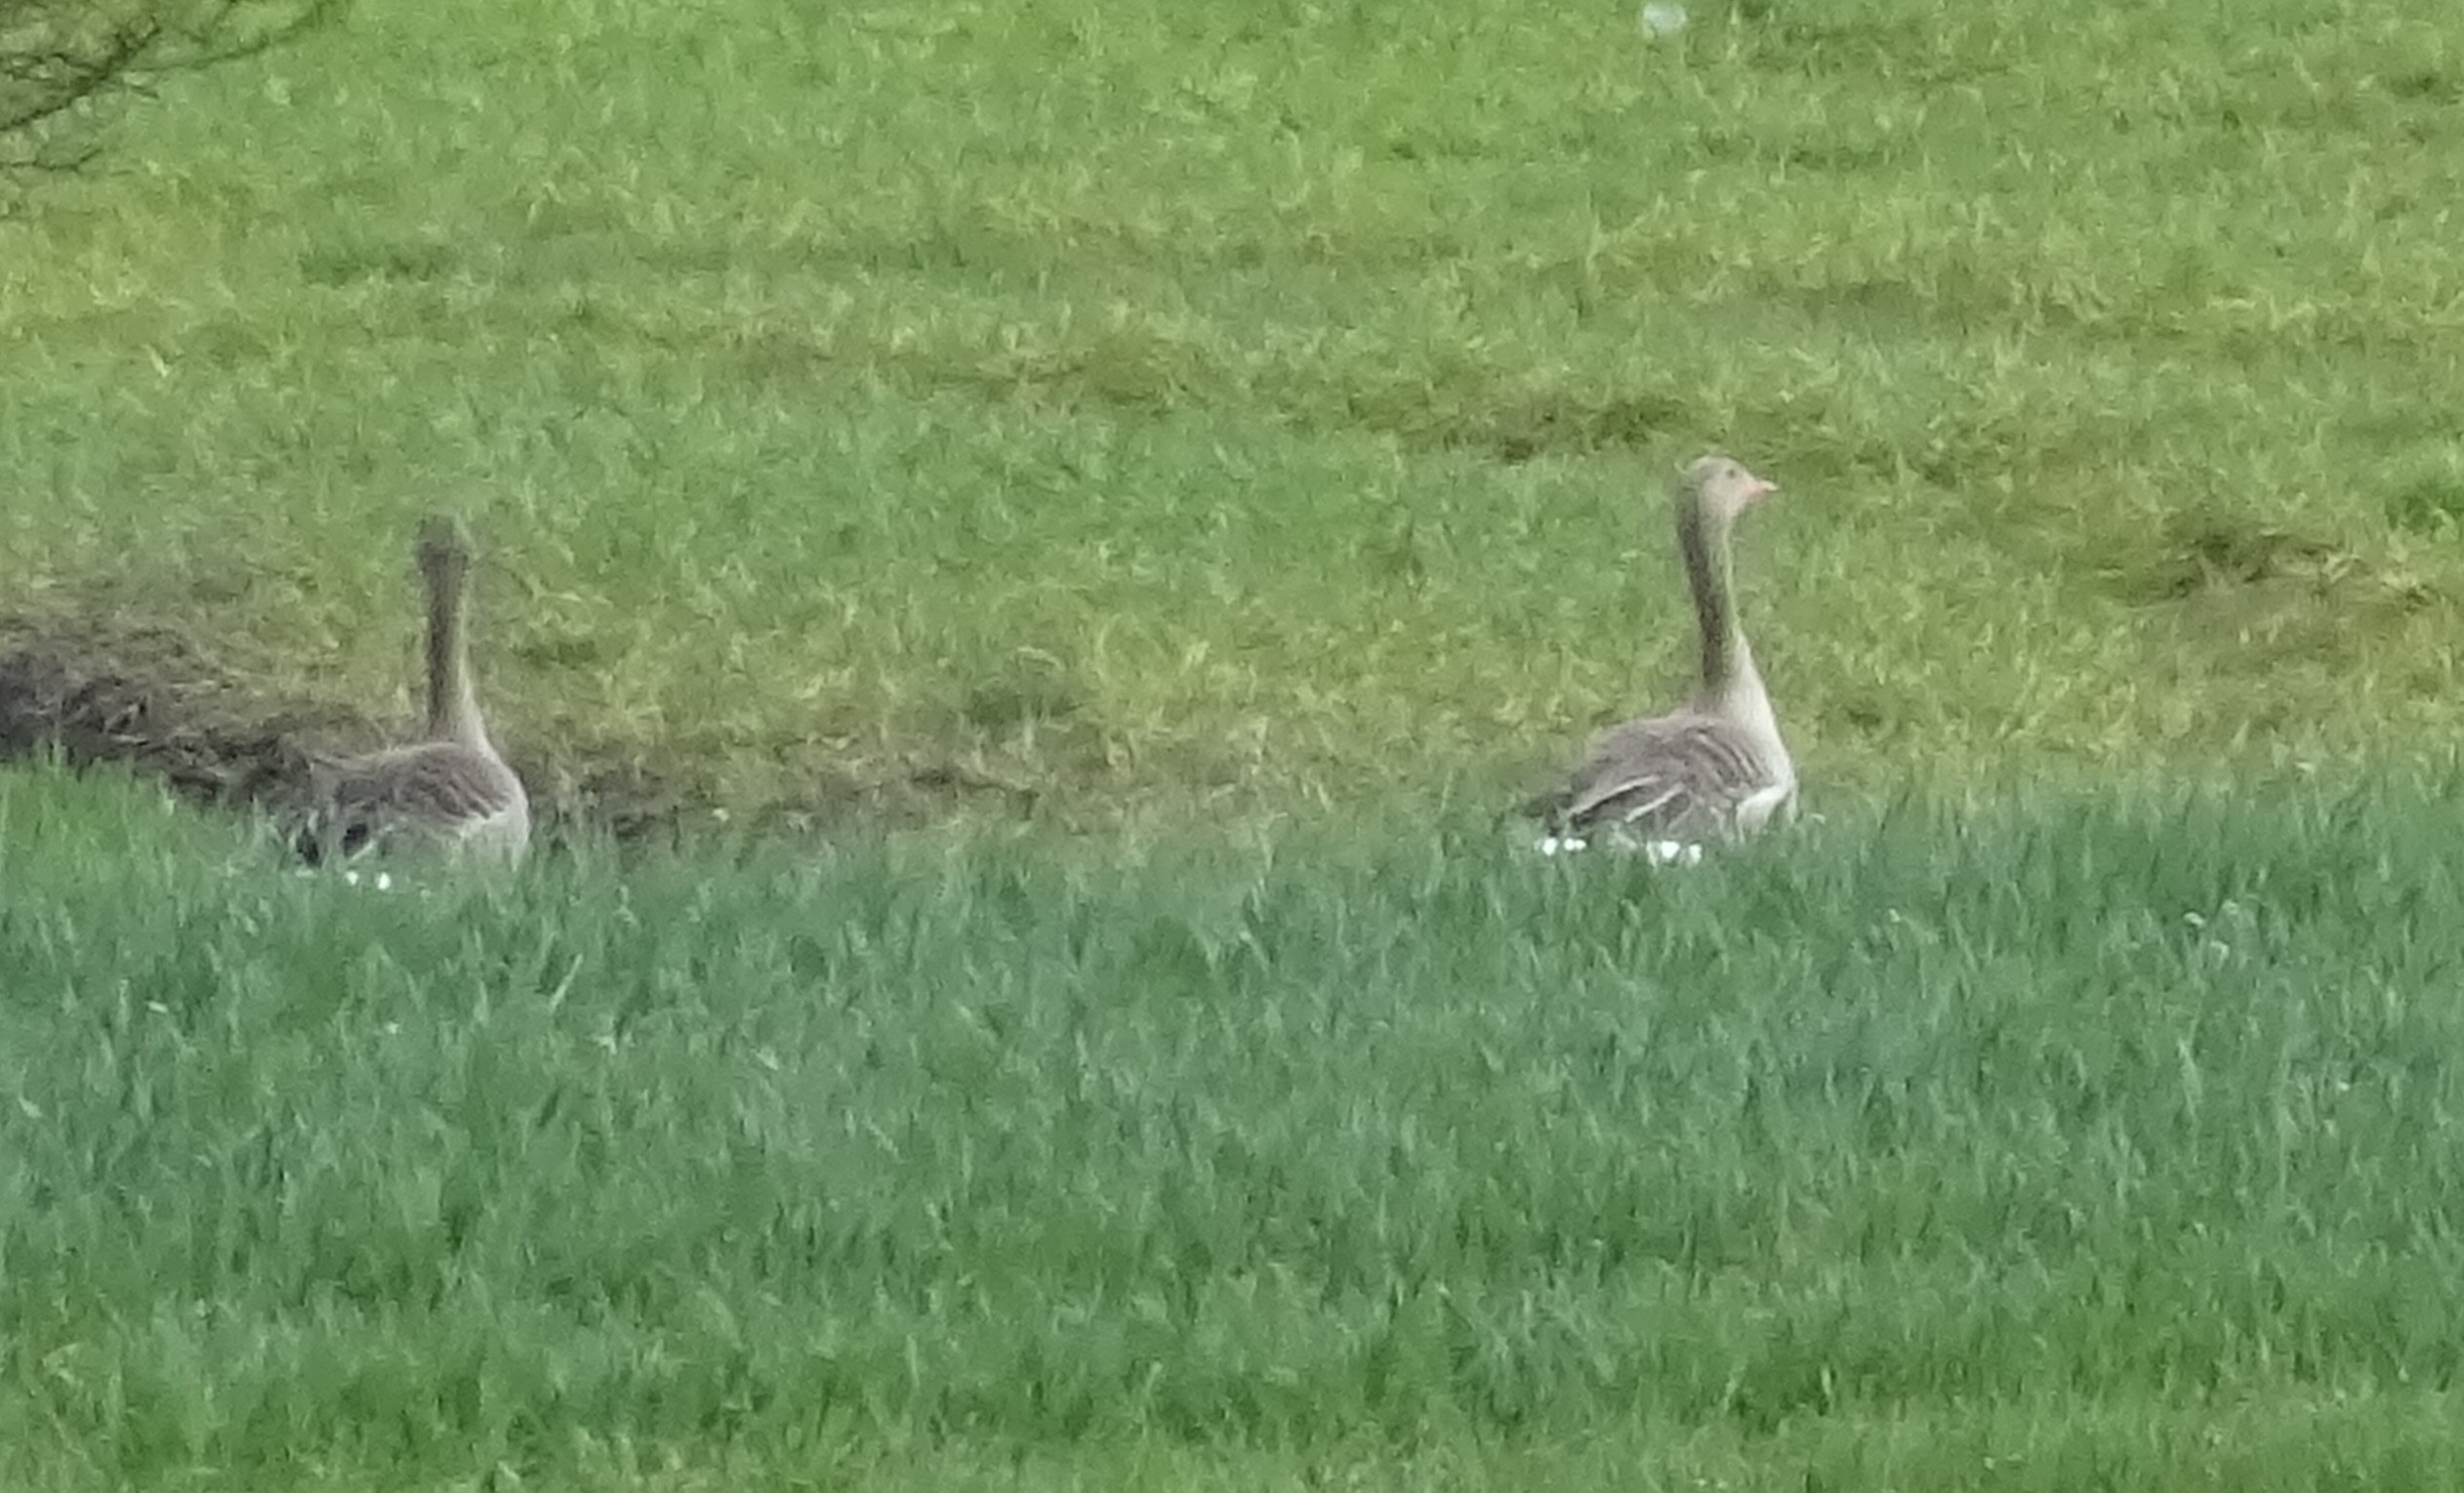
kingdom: Animalia
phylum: Chordata
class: Aves
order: Anseriformes
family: Anatidae
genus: Anser
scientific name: Anser anser
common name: Grågås
